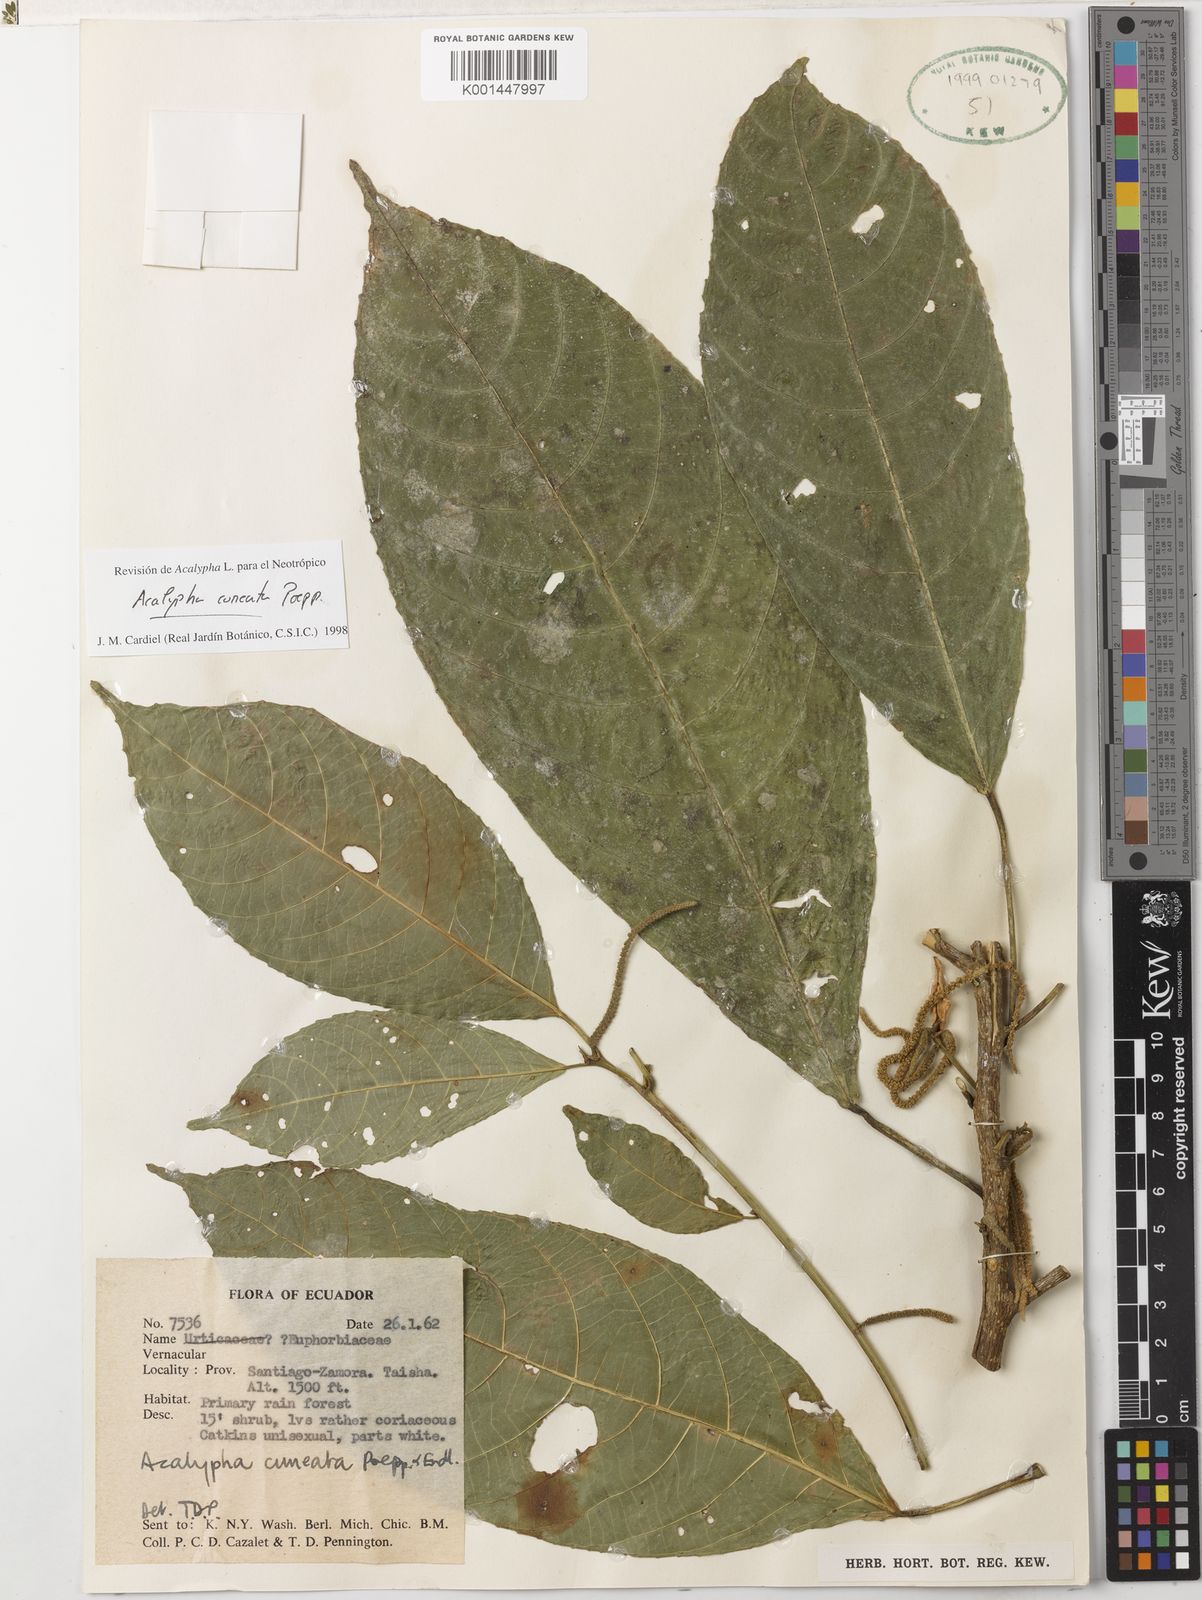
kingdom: Plantae
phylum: Tracheophyta
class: Magnoliopsida
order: Malpighiales
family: Euphorbiaceae
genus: Acalypha
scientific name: Acalypha cuneata
